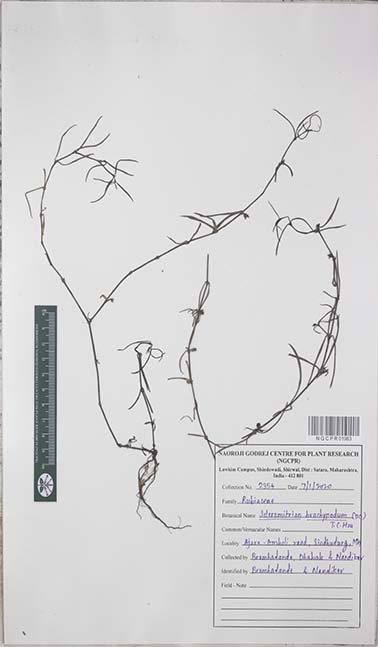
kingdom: Plantae
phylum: Tracheophyta
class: Magnoliopsida
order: Gentianales
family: Rubiaceae
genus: Scleromitrion
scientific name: Scleromitrion brachypodum
